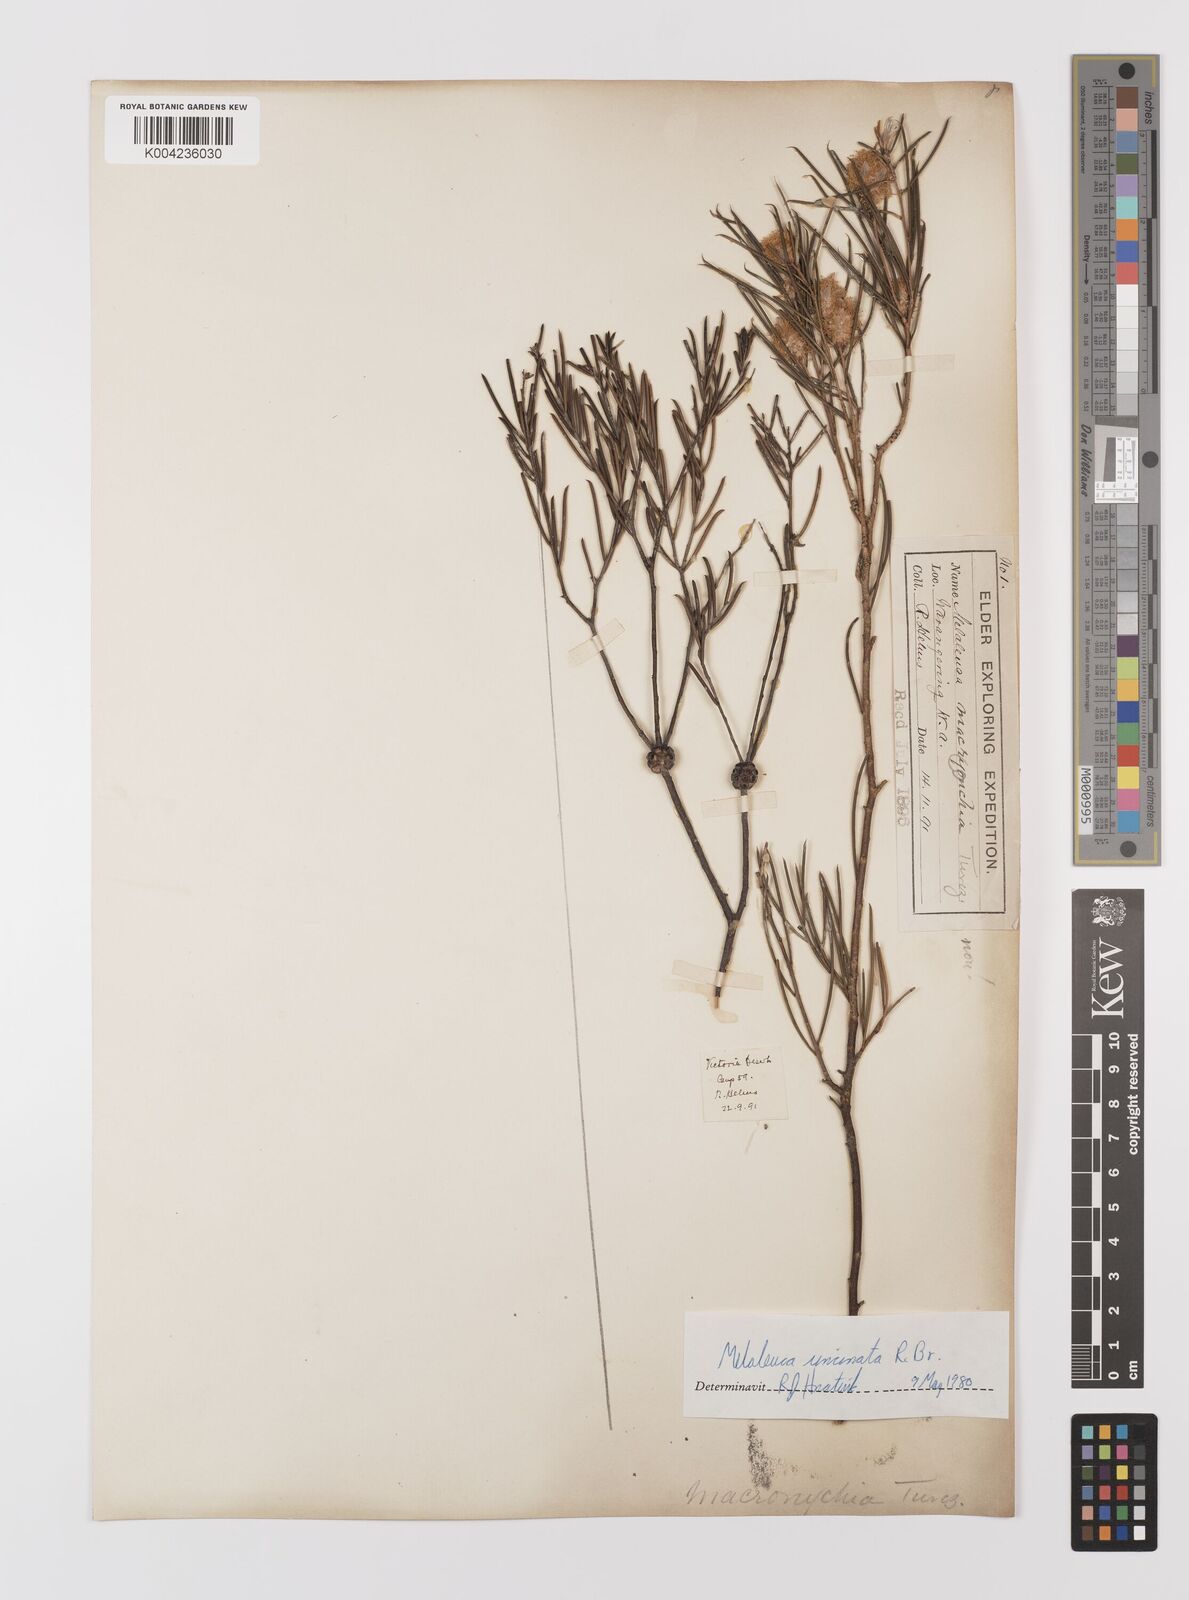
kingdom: Plantae
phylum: Tracheophyta
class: Magnoliopsida
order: Myrtales
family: Myrtaceae
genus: Melaleuca
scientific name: Melaleuca uncinata
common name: Broom honey myrtle
